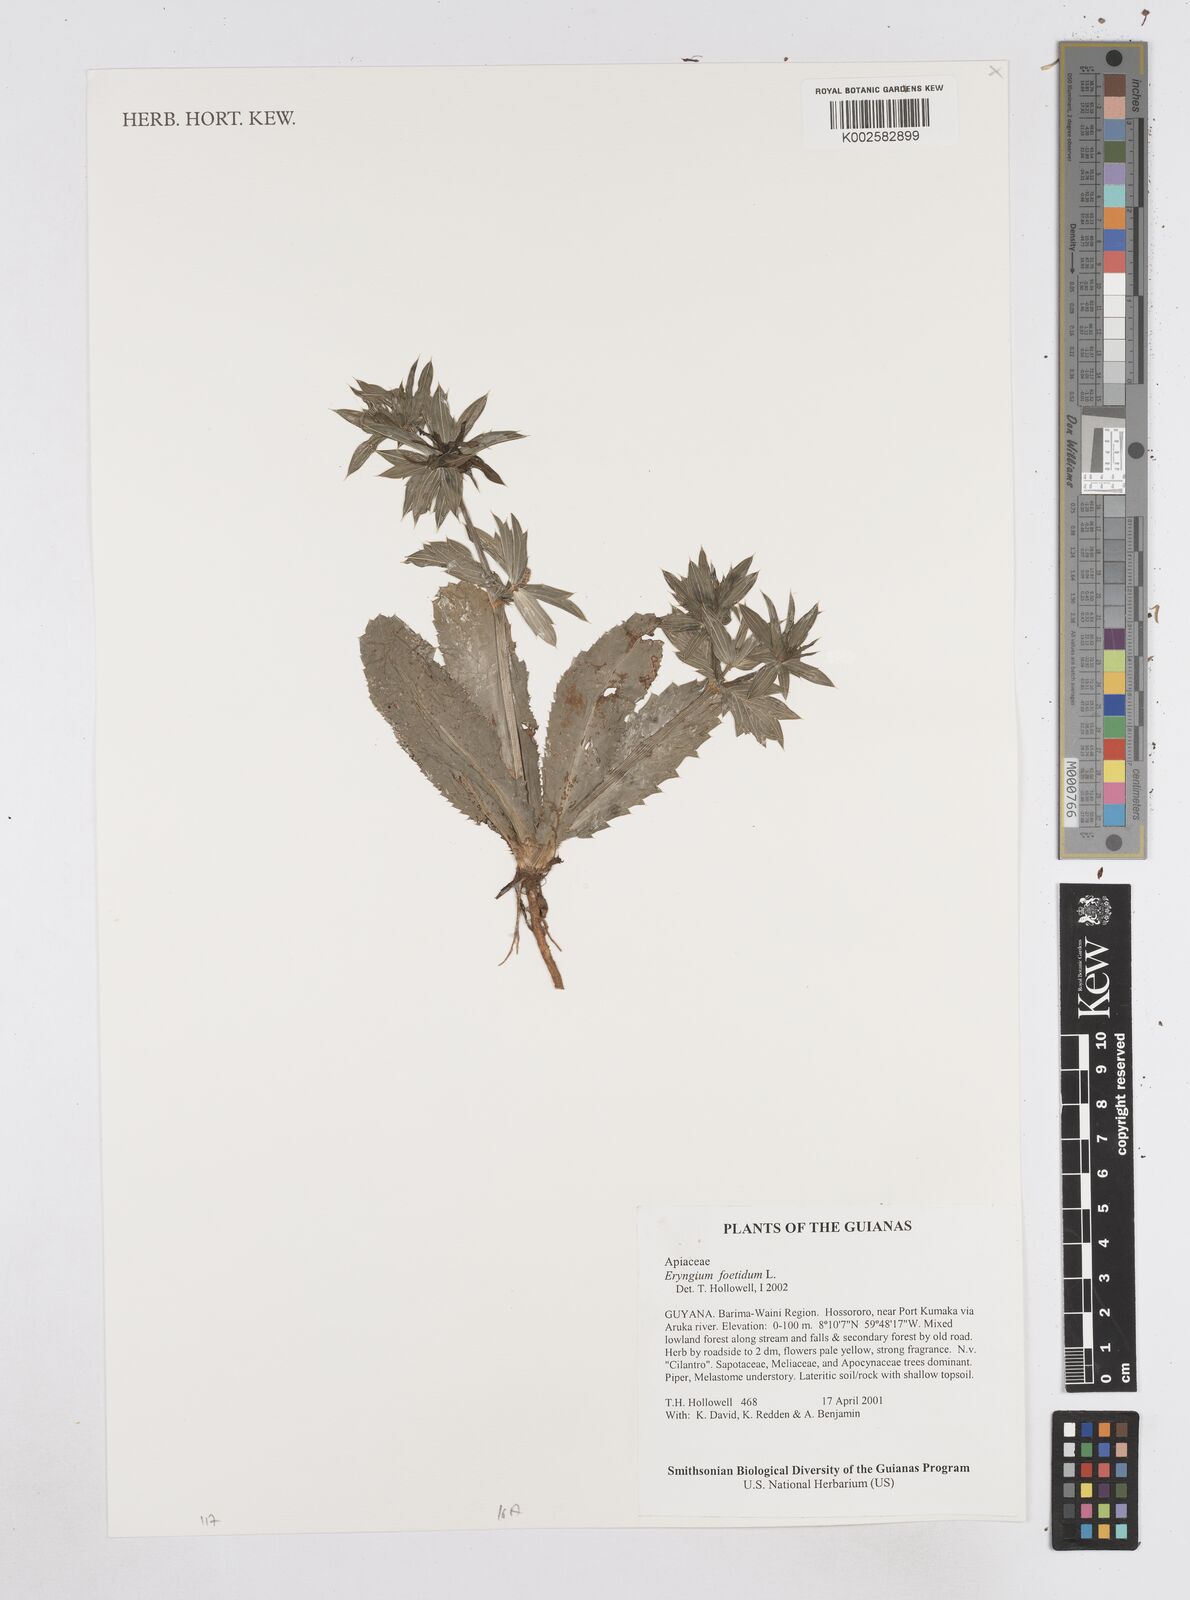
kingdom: Plantae
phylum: Tracheophyta
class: Magnoliopsida
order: Apiales
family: Apiaceae
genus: Eryngium
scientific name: Eryngium foetidum
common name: Fitweed
